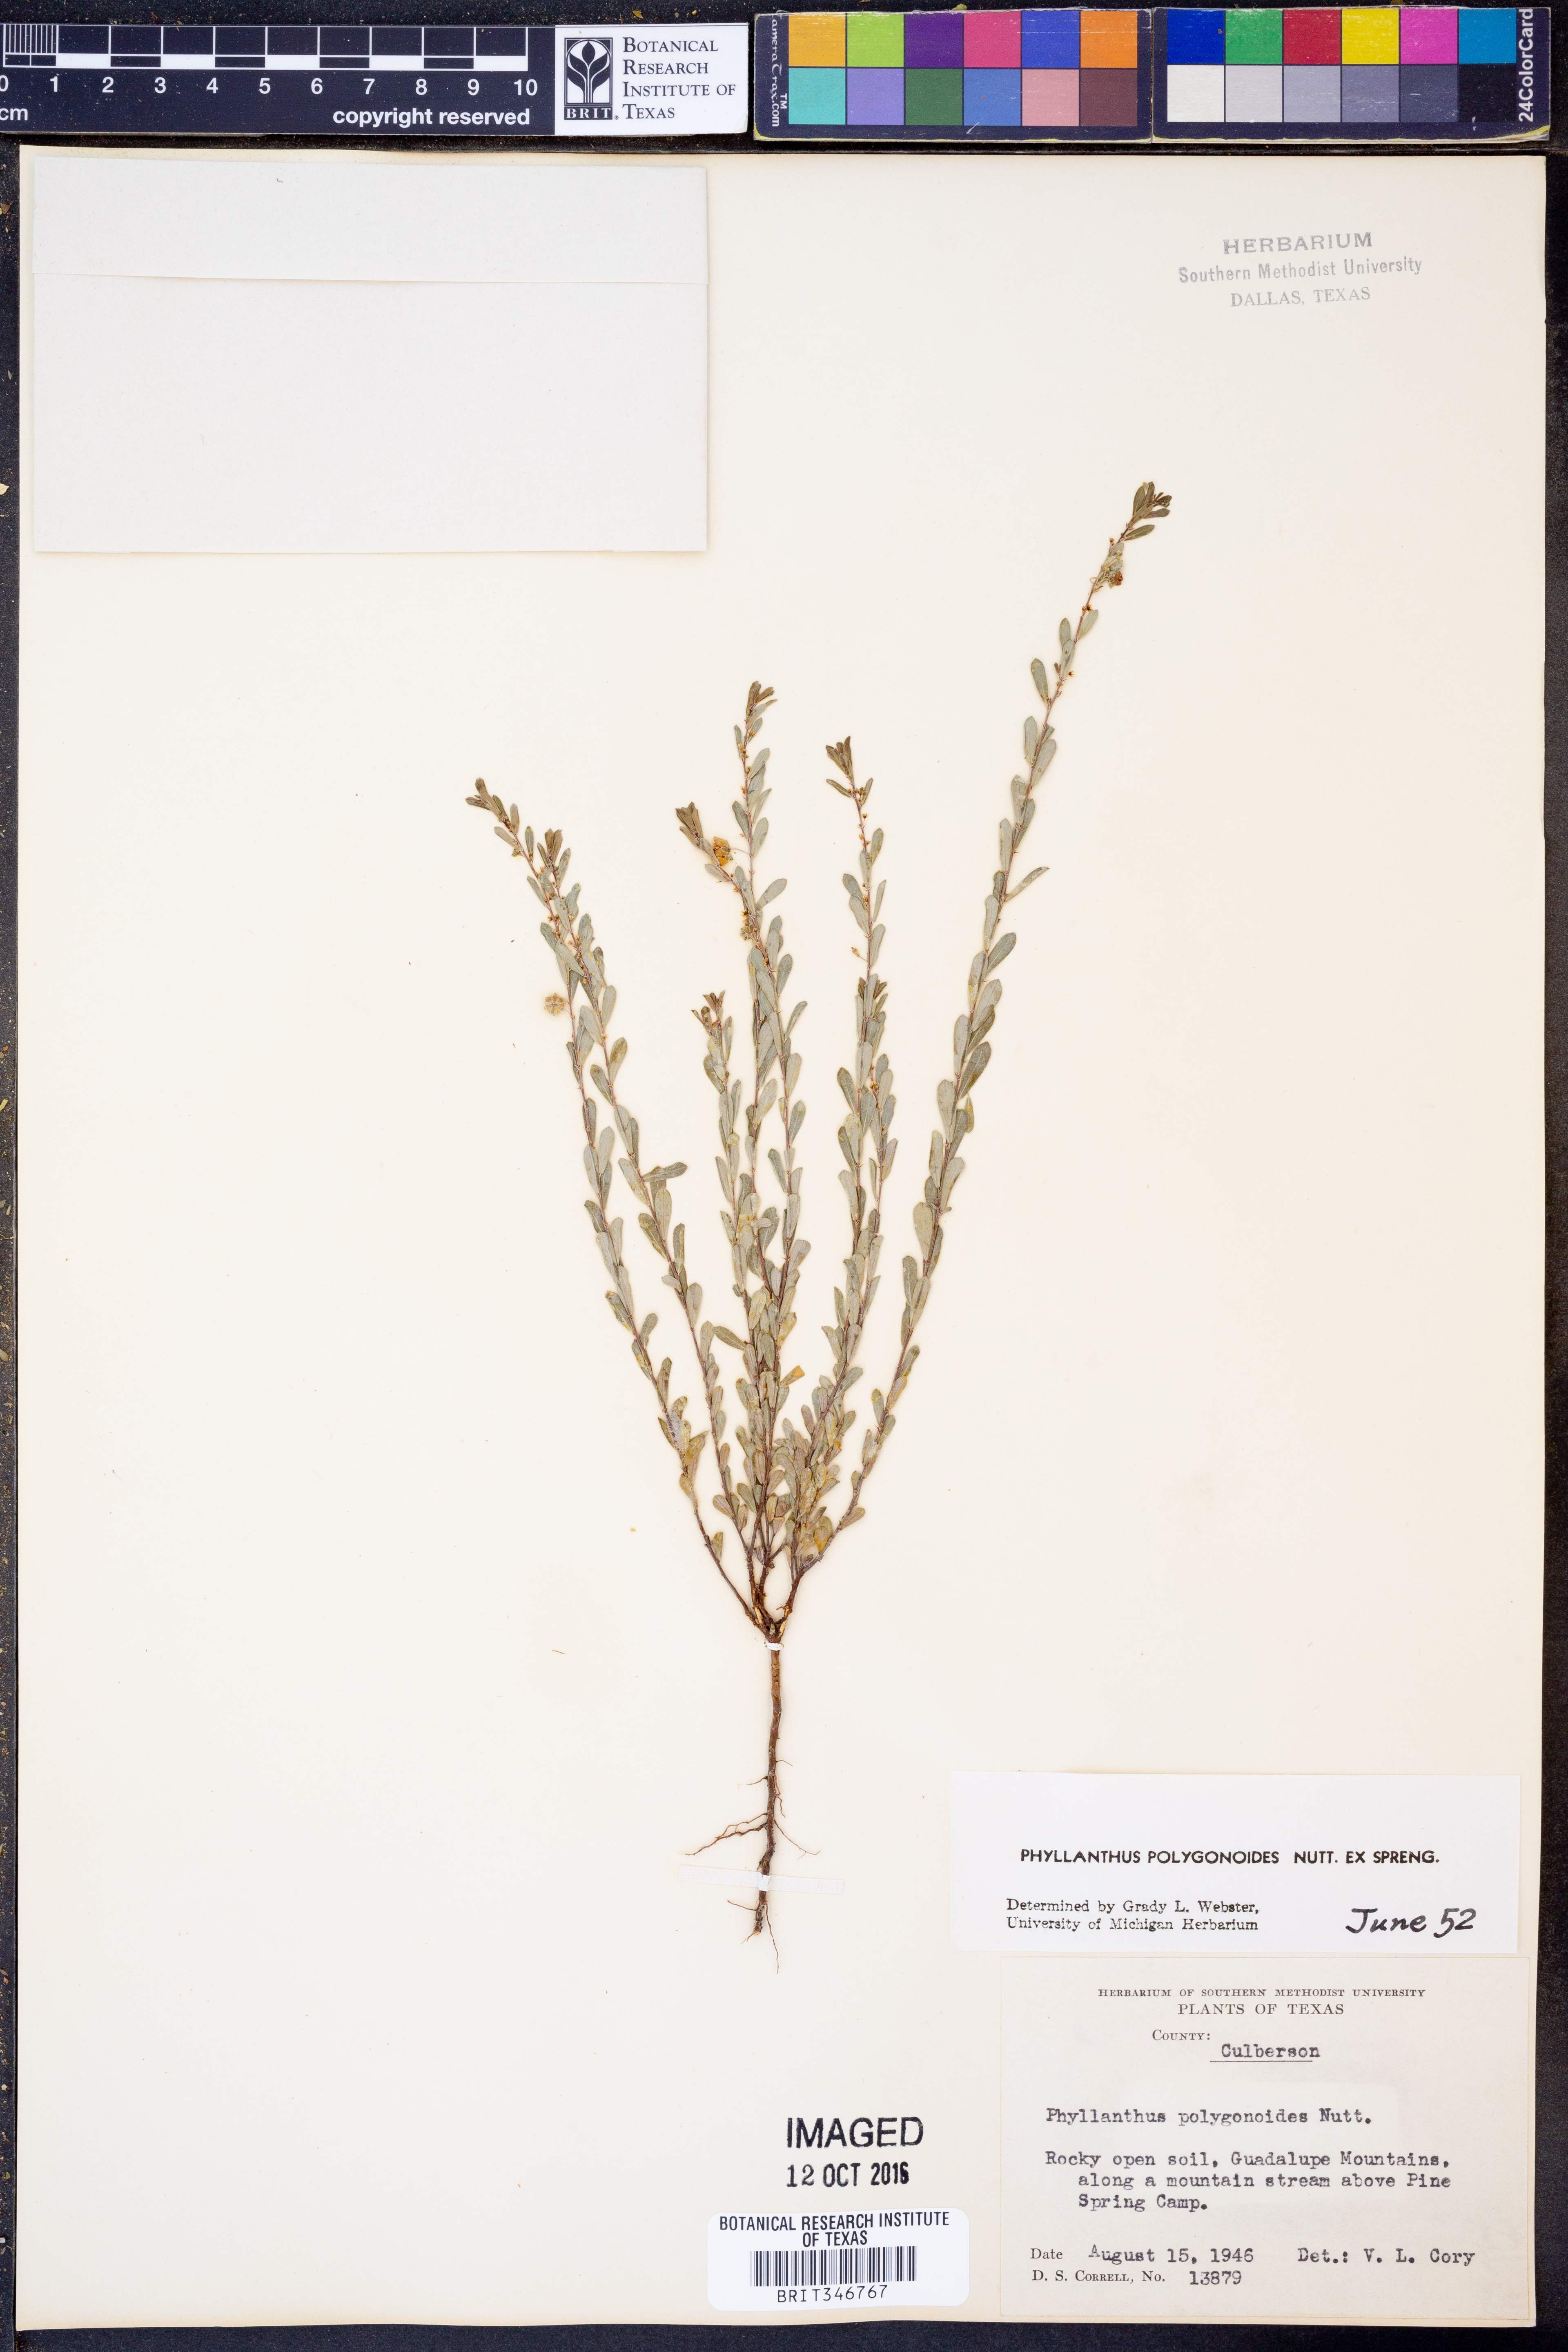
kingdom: Plantae
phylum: Tracheophyta
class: Magnoliopsida
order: Malpighiales
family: Phyllanthaceae
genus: Phyllanthus
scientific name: Phyllanthus polygonoides
